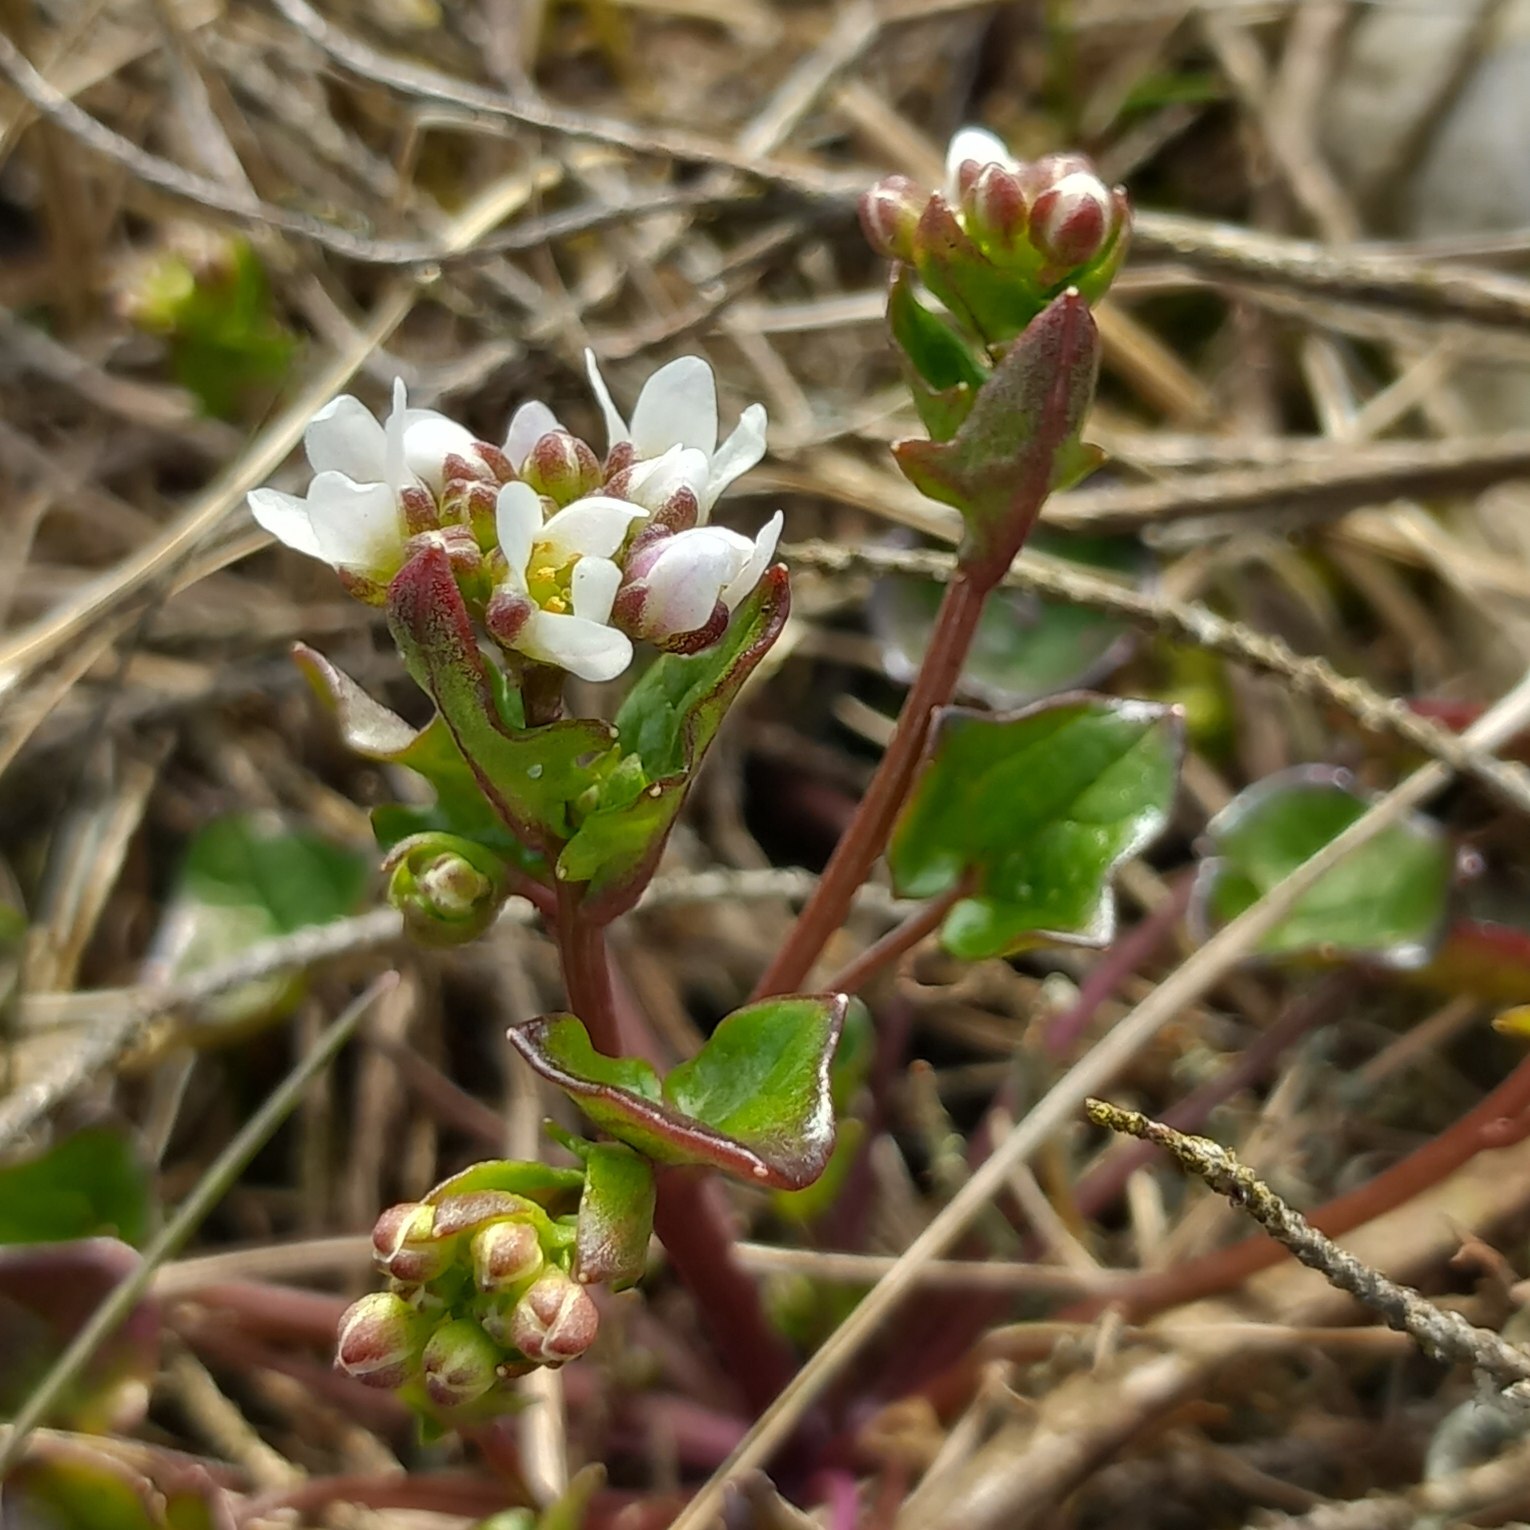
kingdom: Plantae
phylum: Tracheophyta
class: Magnoliopsida
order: Brassicales
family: Brassicaceae
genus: Cochlearia
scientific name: Cochlearia danica
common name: Dansk kokleare
